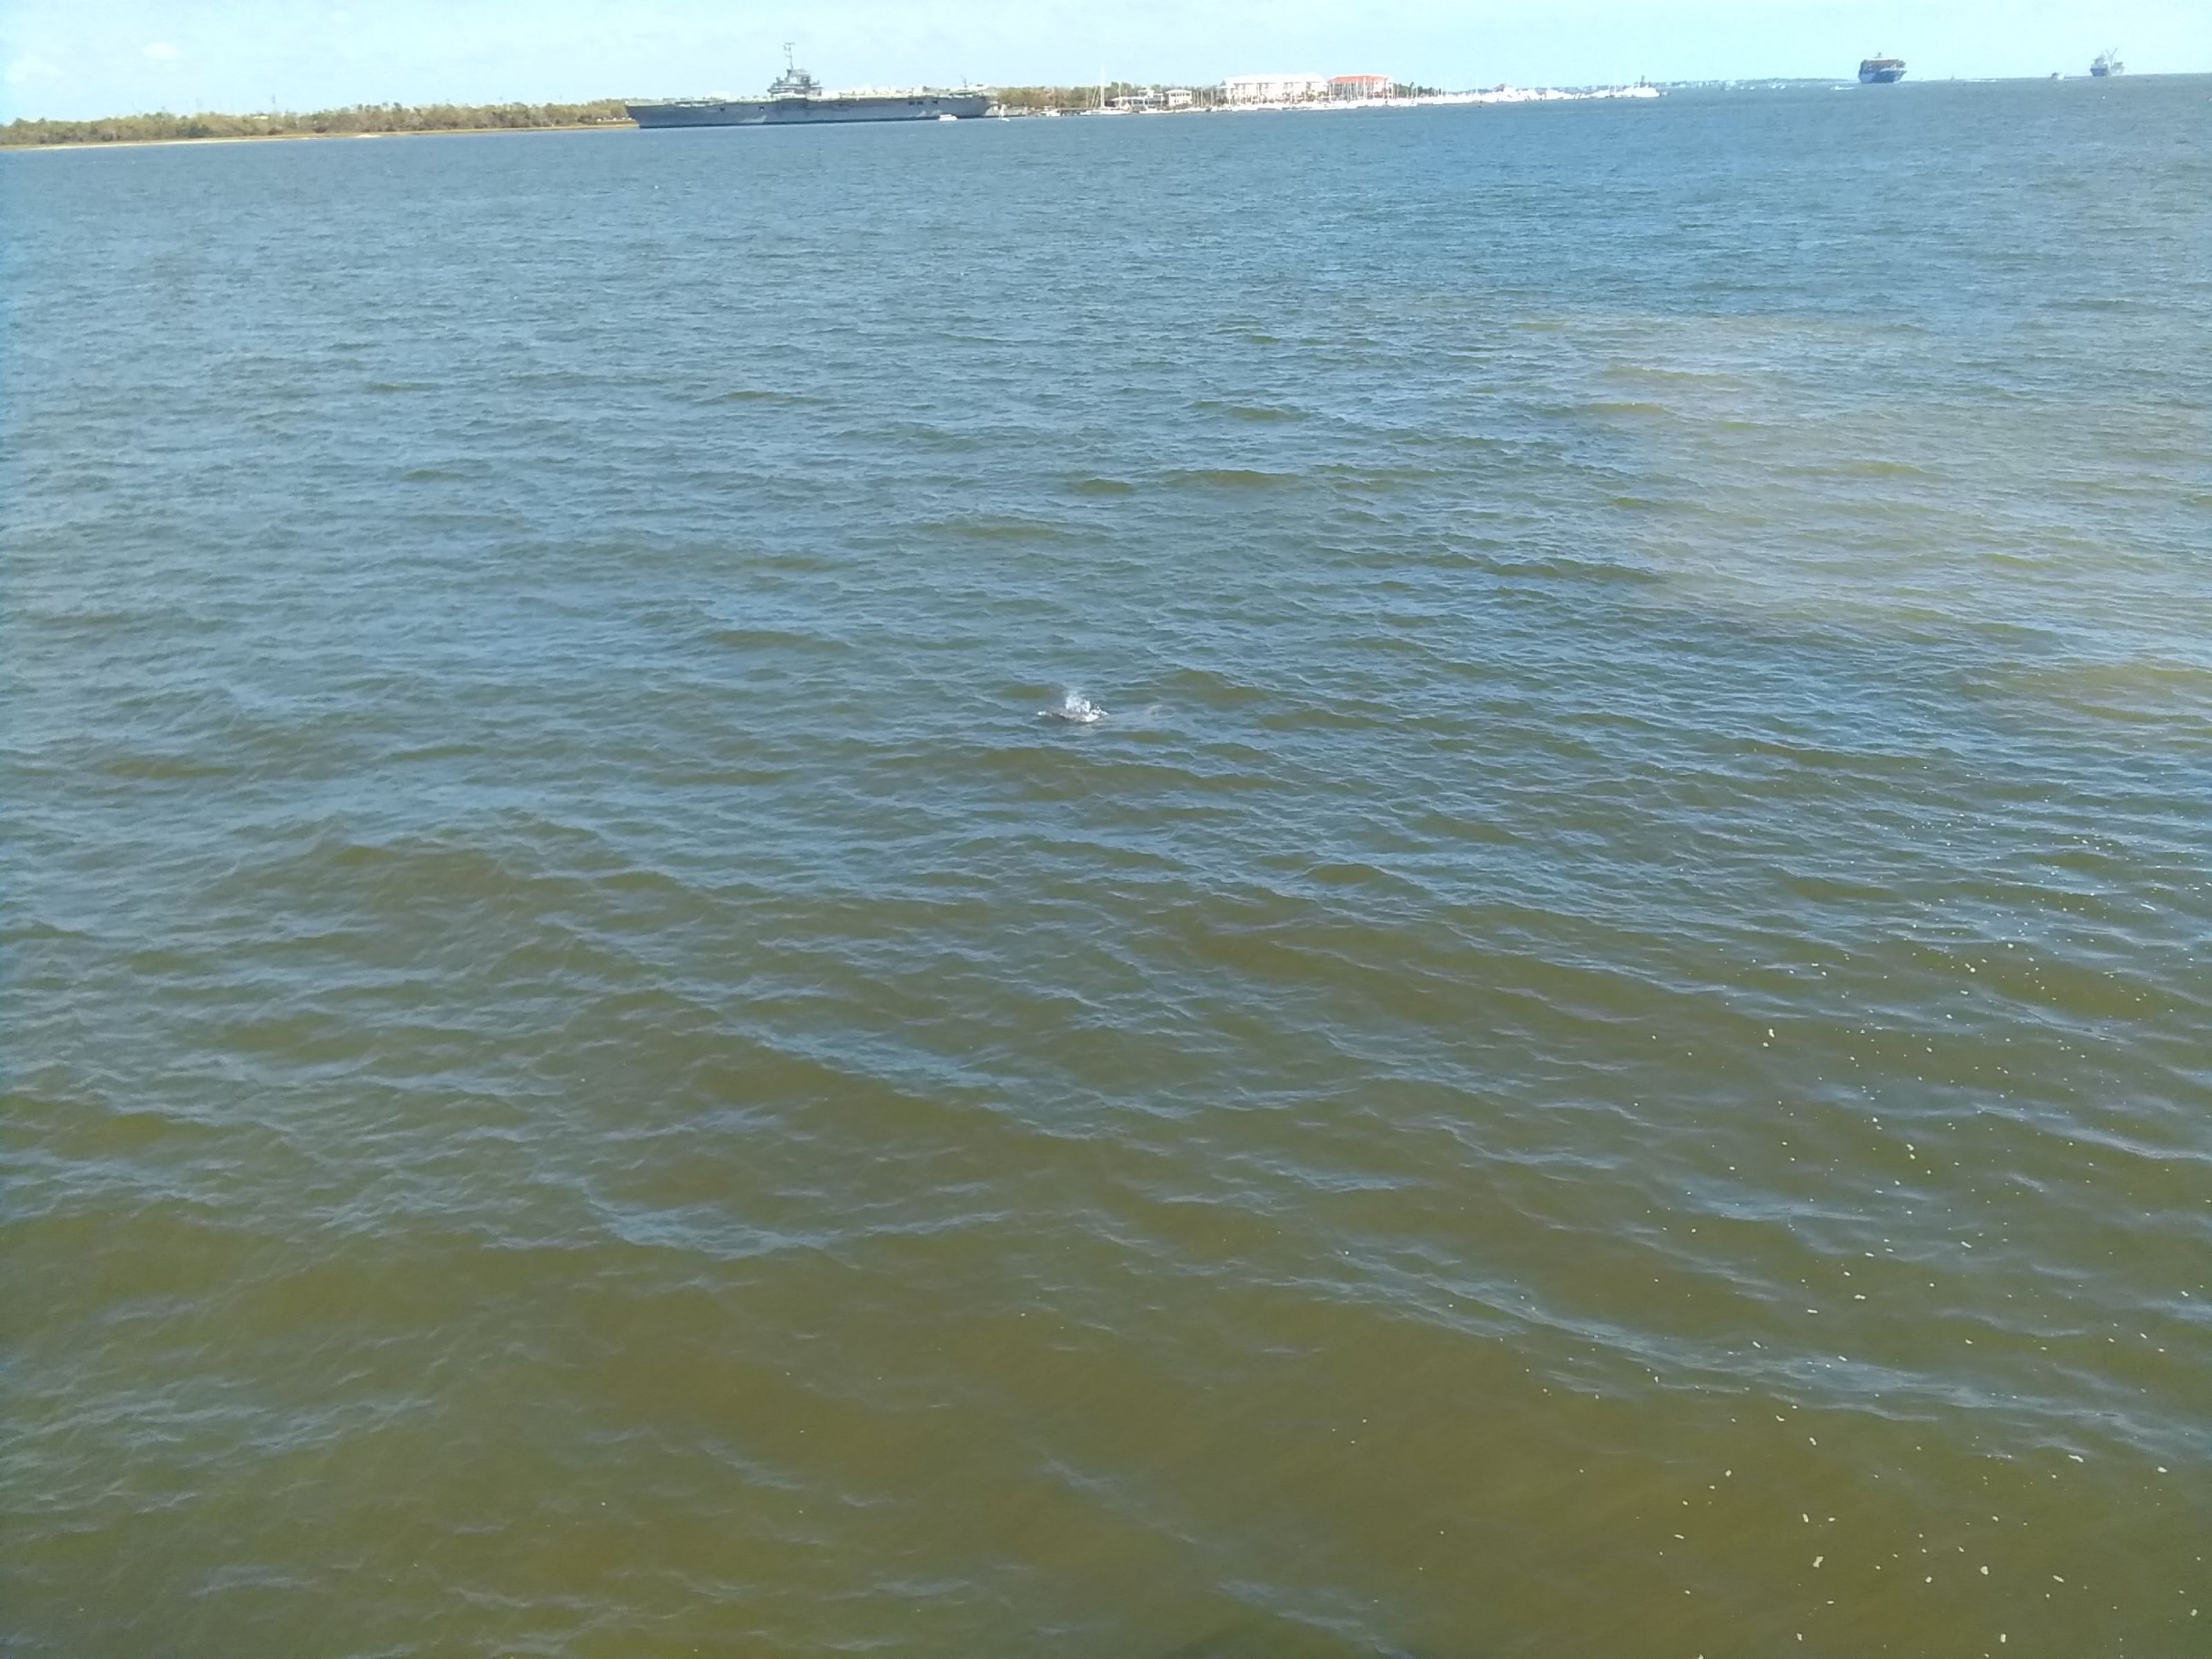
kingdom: Animalia
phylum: Chordata
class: Mammalia
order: Cetacea
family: Delphinidae
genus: Tursiops
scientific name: Tursiops truncatus
